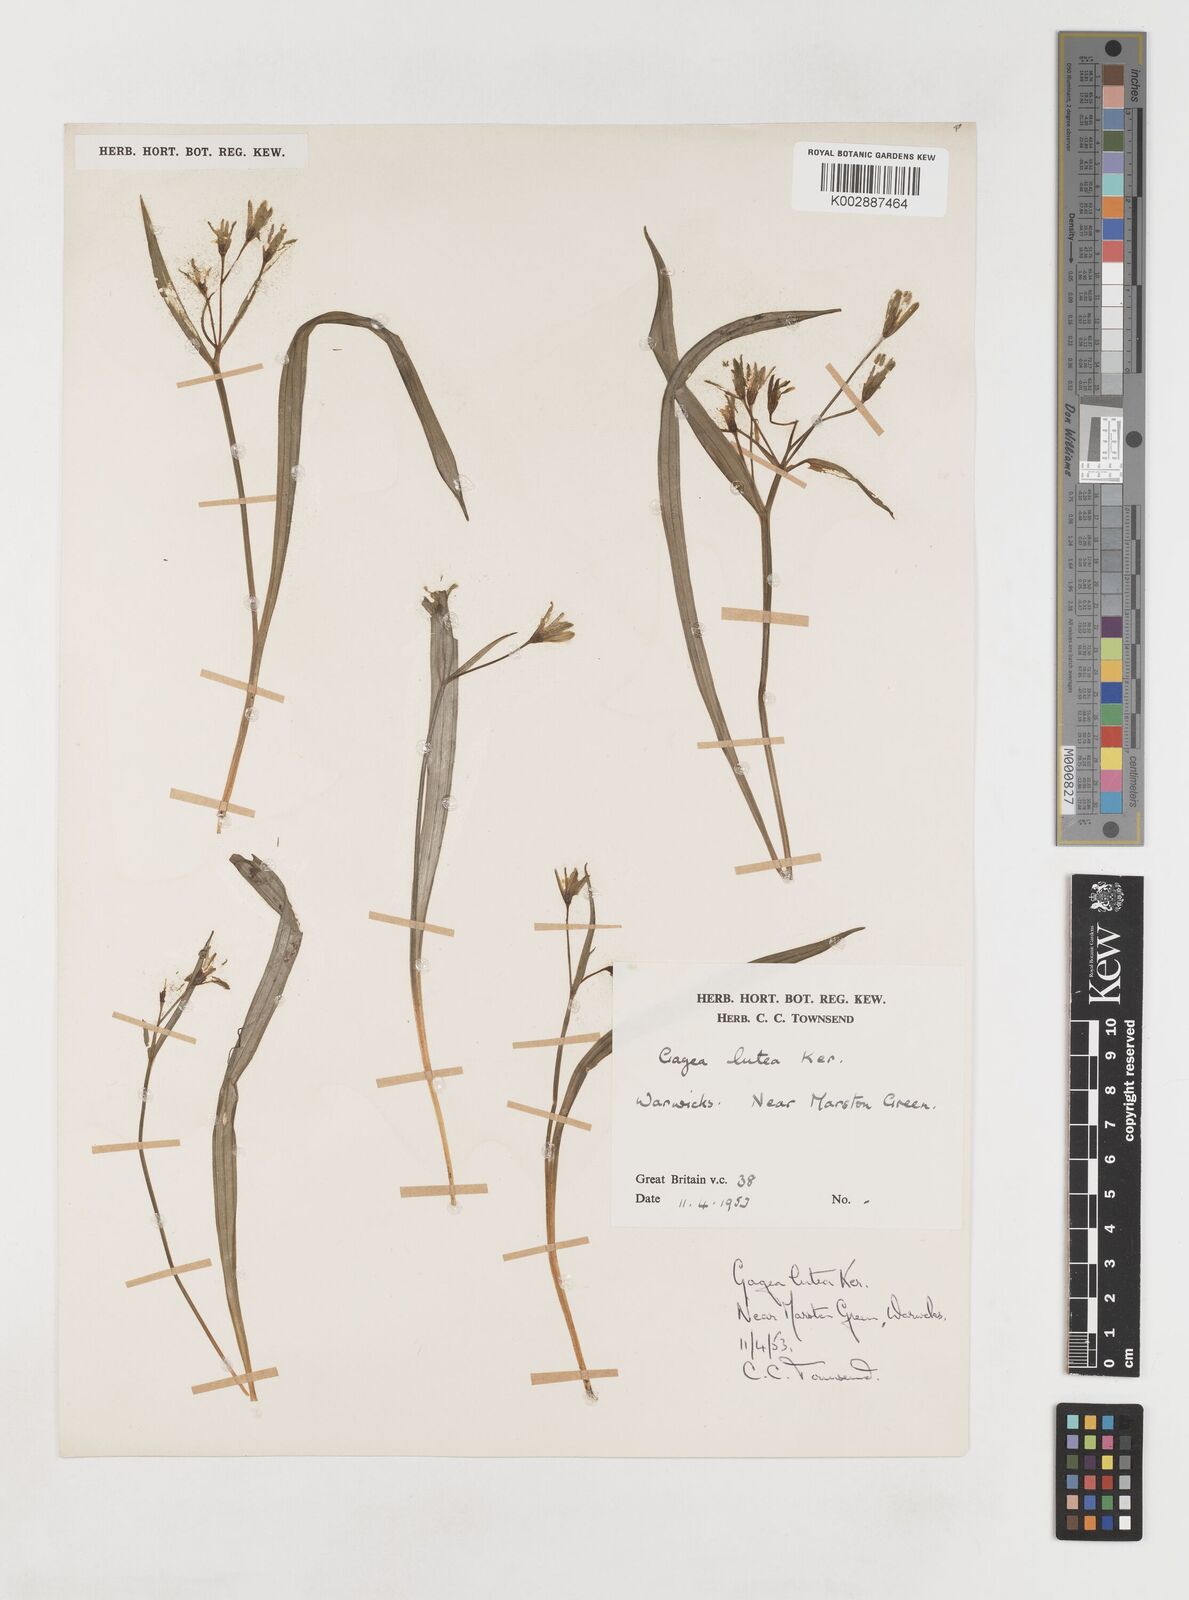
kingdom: Plantae
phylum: Tracheophyta
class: Liliopsida
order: Liliales
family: Liliaceae
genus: Gagea
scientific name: Gagea lutea
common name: Yellow star-of-bethlehem
